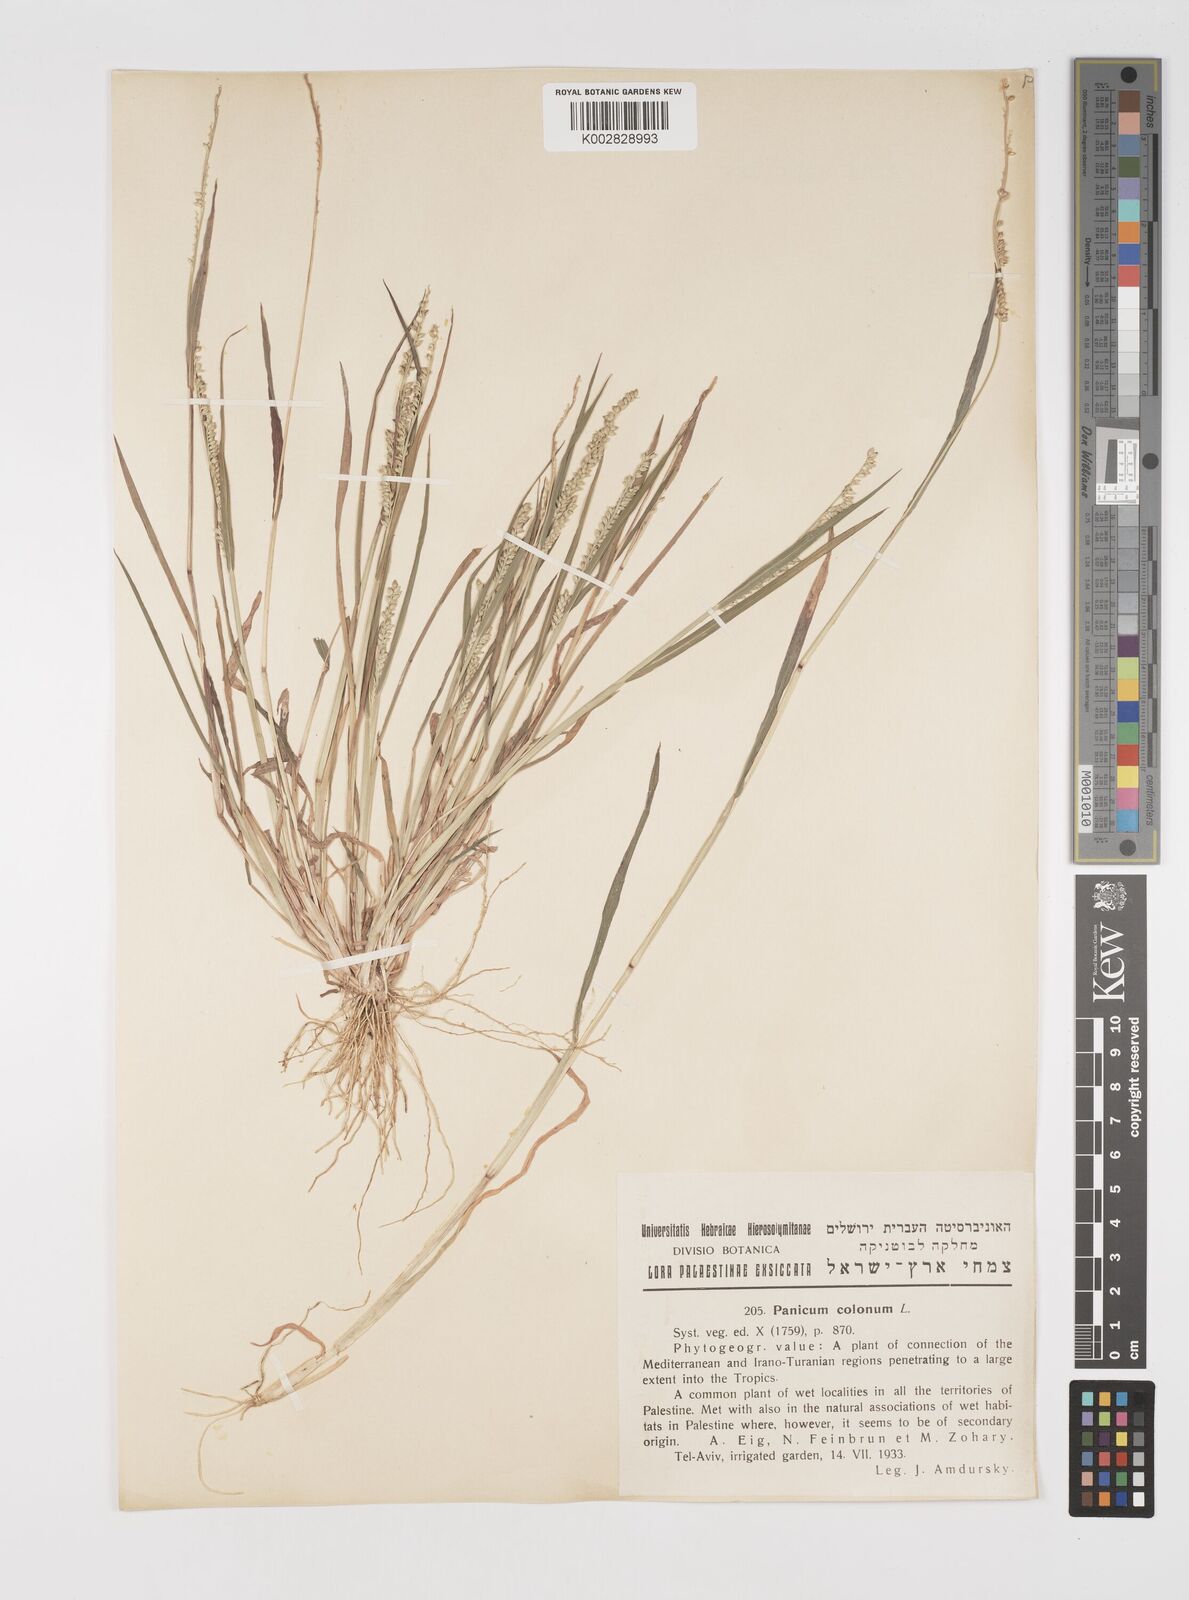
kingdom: Plantae
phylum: Tracheophyta
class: Liliopsida
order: Poales
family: Poaceae
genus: Echinochloa
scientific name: Echinochloa colonum
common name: Jungle rice
